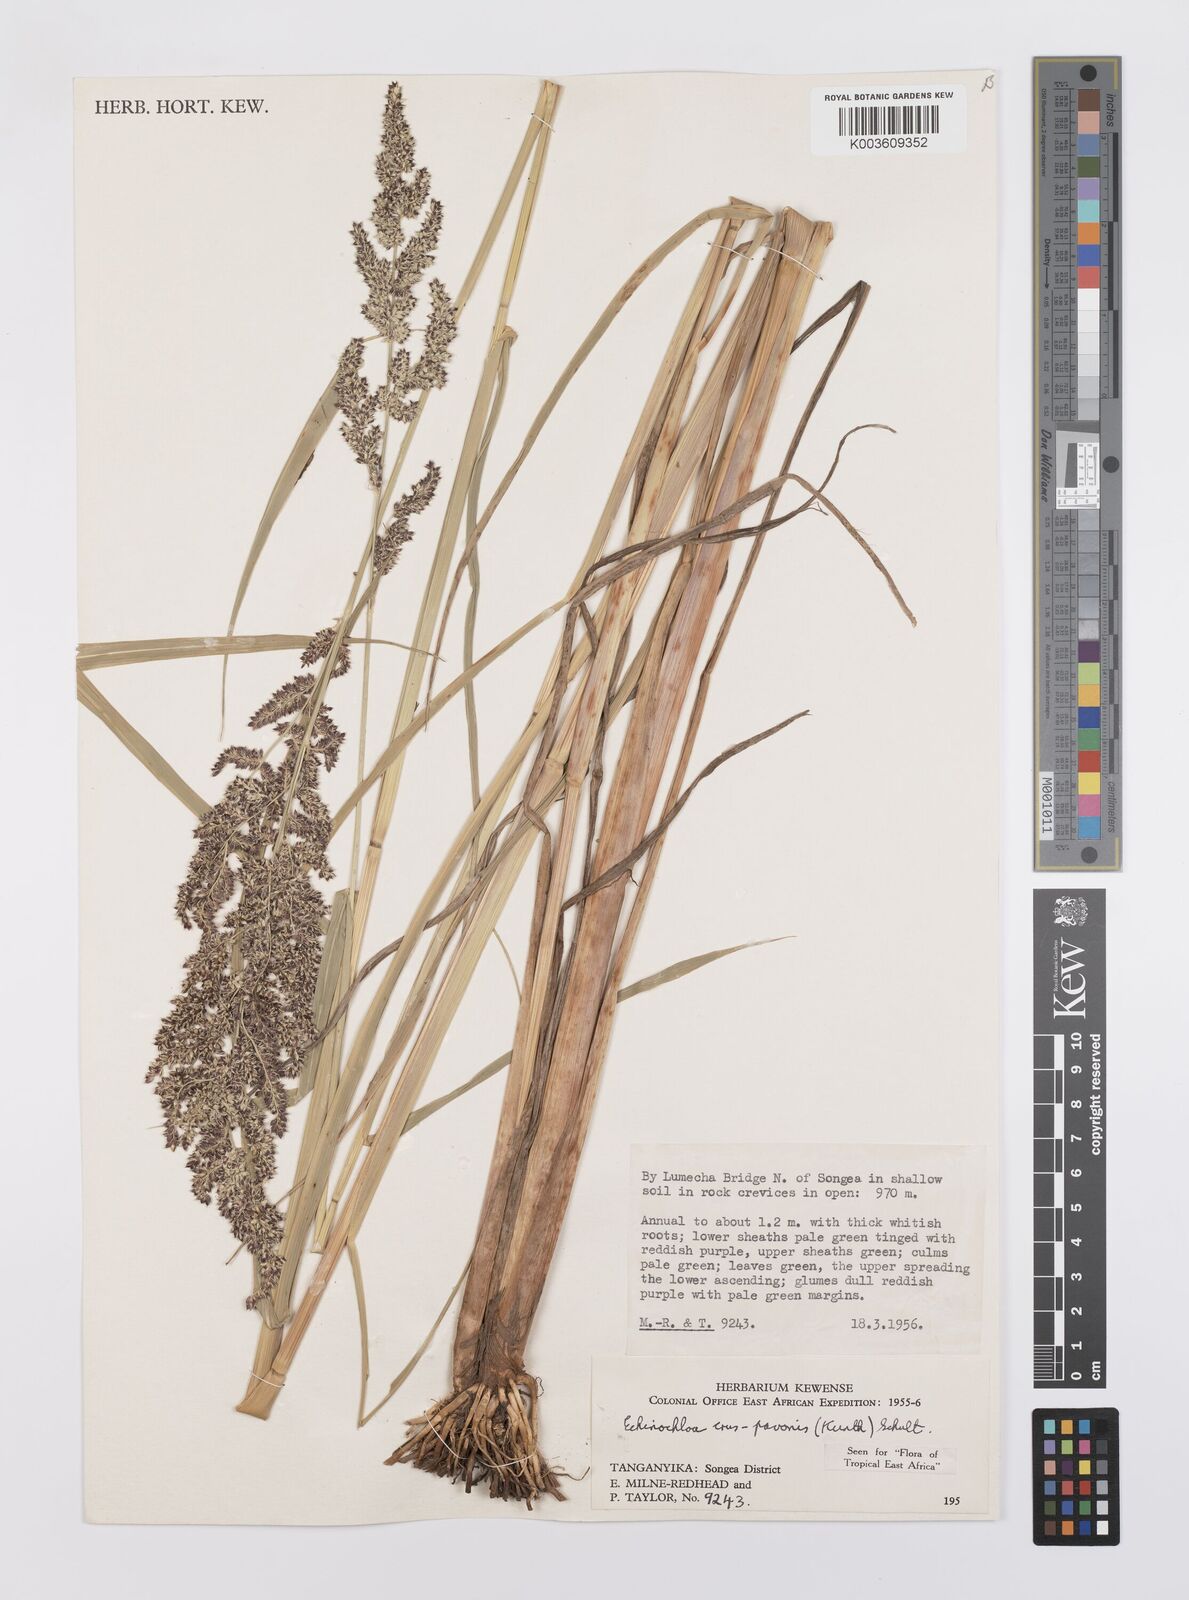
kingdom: Plantae
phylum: Tracheophyta
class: Liliopsida
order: Poales
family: Poaceae
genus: Echinochloa
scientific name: Echinochloa crus-pavonis
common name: Gulf cockspur grass
